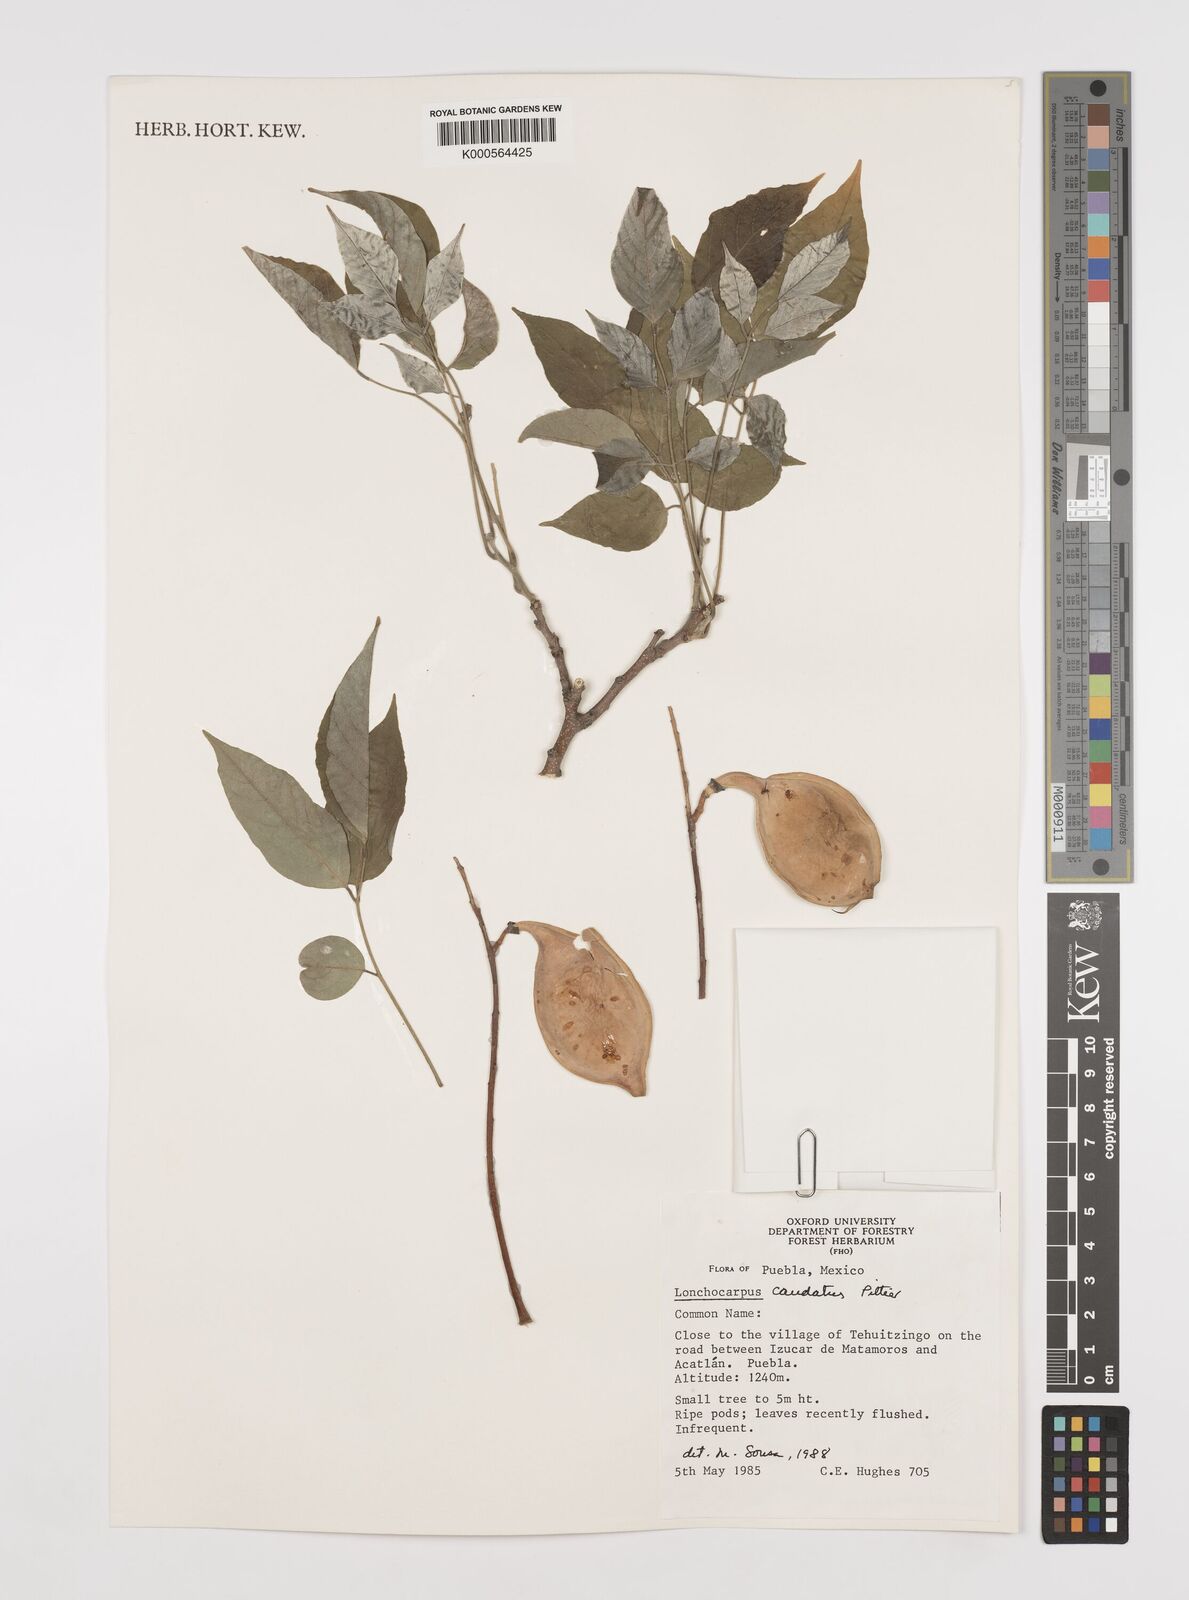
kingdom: Plantae
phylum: Tracheophyta
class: Magnoliopsida
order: Fabales
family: Fabaceae
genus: Lonchocarpus
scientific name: Lonchocarpus caudatus
